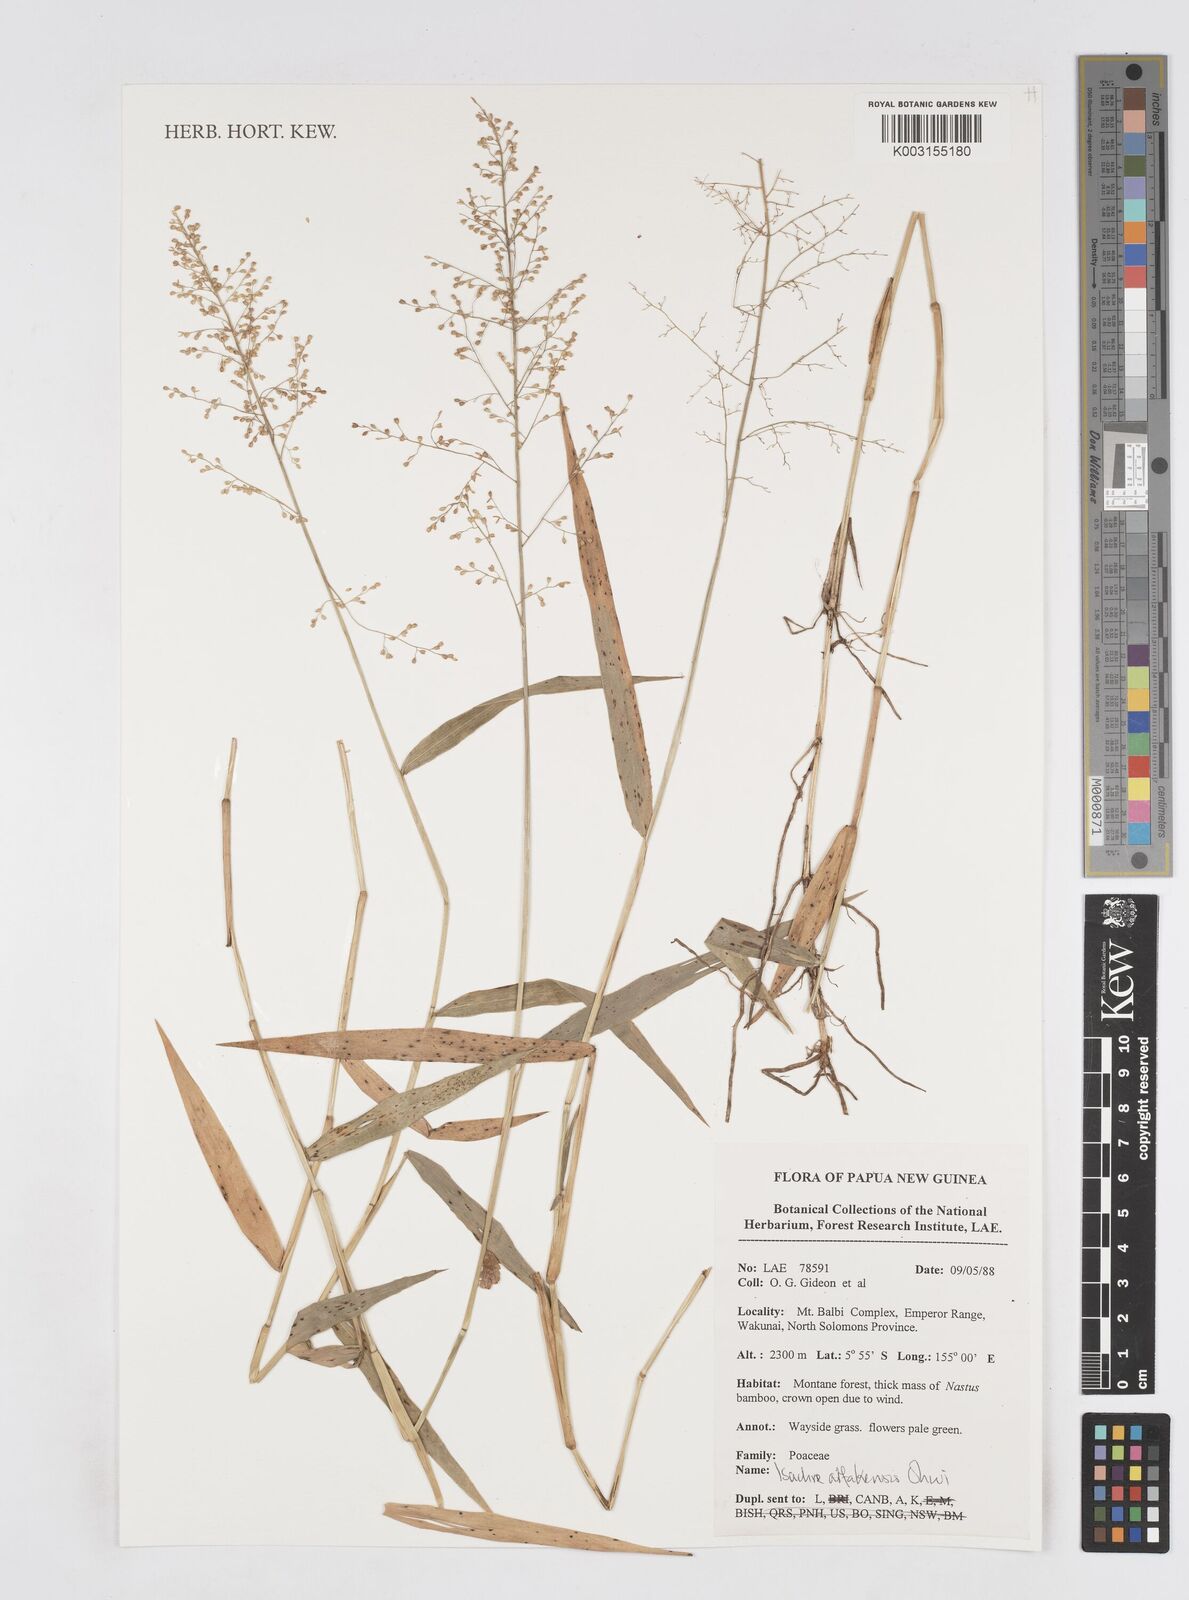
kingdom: Plantae
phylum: Tracheophyta
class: Liliopsida
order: Poales
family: Poaceae
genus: Isachne
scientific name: Isachne arfakensis
